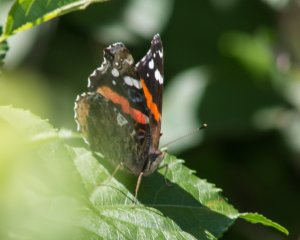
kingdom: Animalia
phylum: Arthropoda
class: Insecta
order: Lepidoptera
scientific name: Lepidoptera
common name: Butterflies
